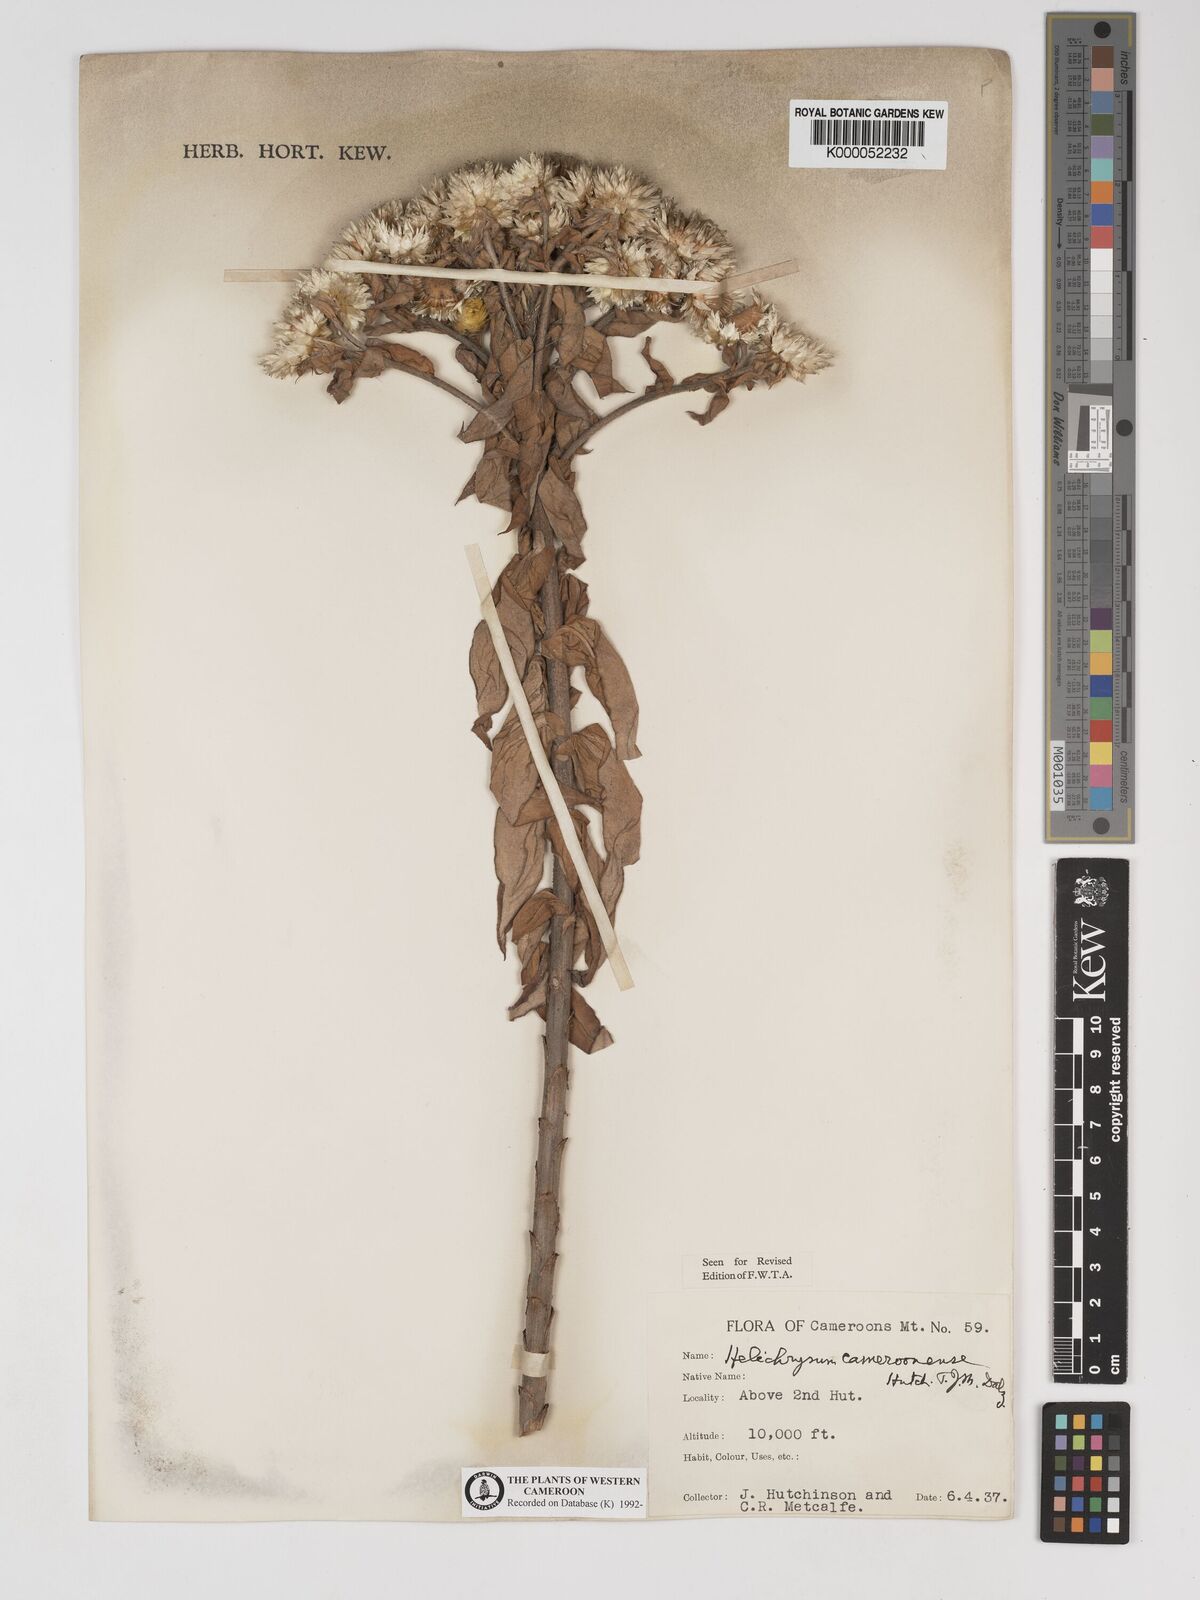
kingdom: Plantae
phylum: Tracheophyta
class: Magnoliopsida
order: Asterales
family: Asteraceae
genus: Helichrysum
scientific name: Helichrysum cameroonense
